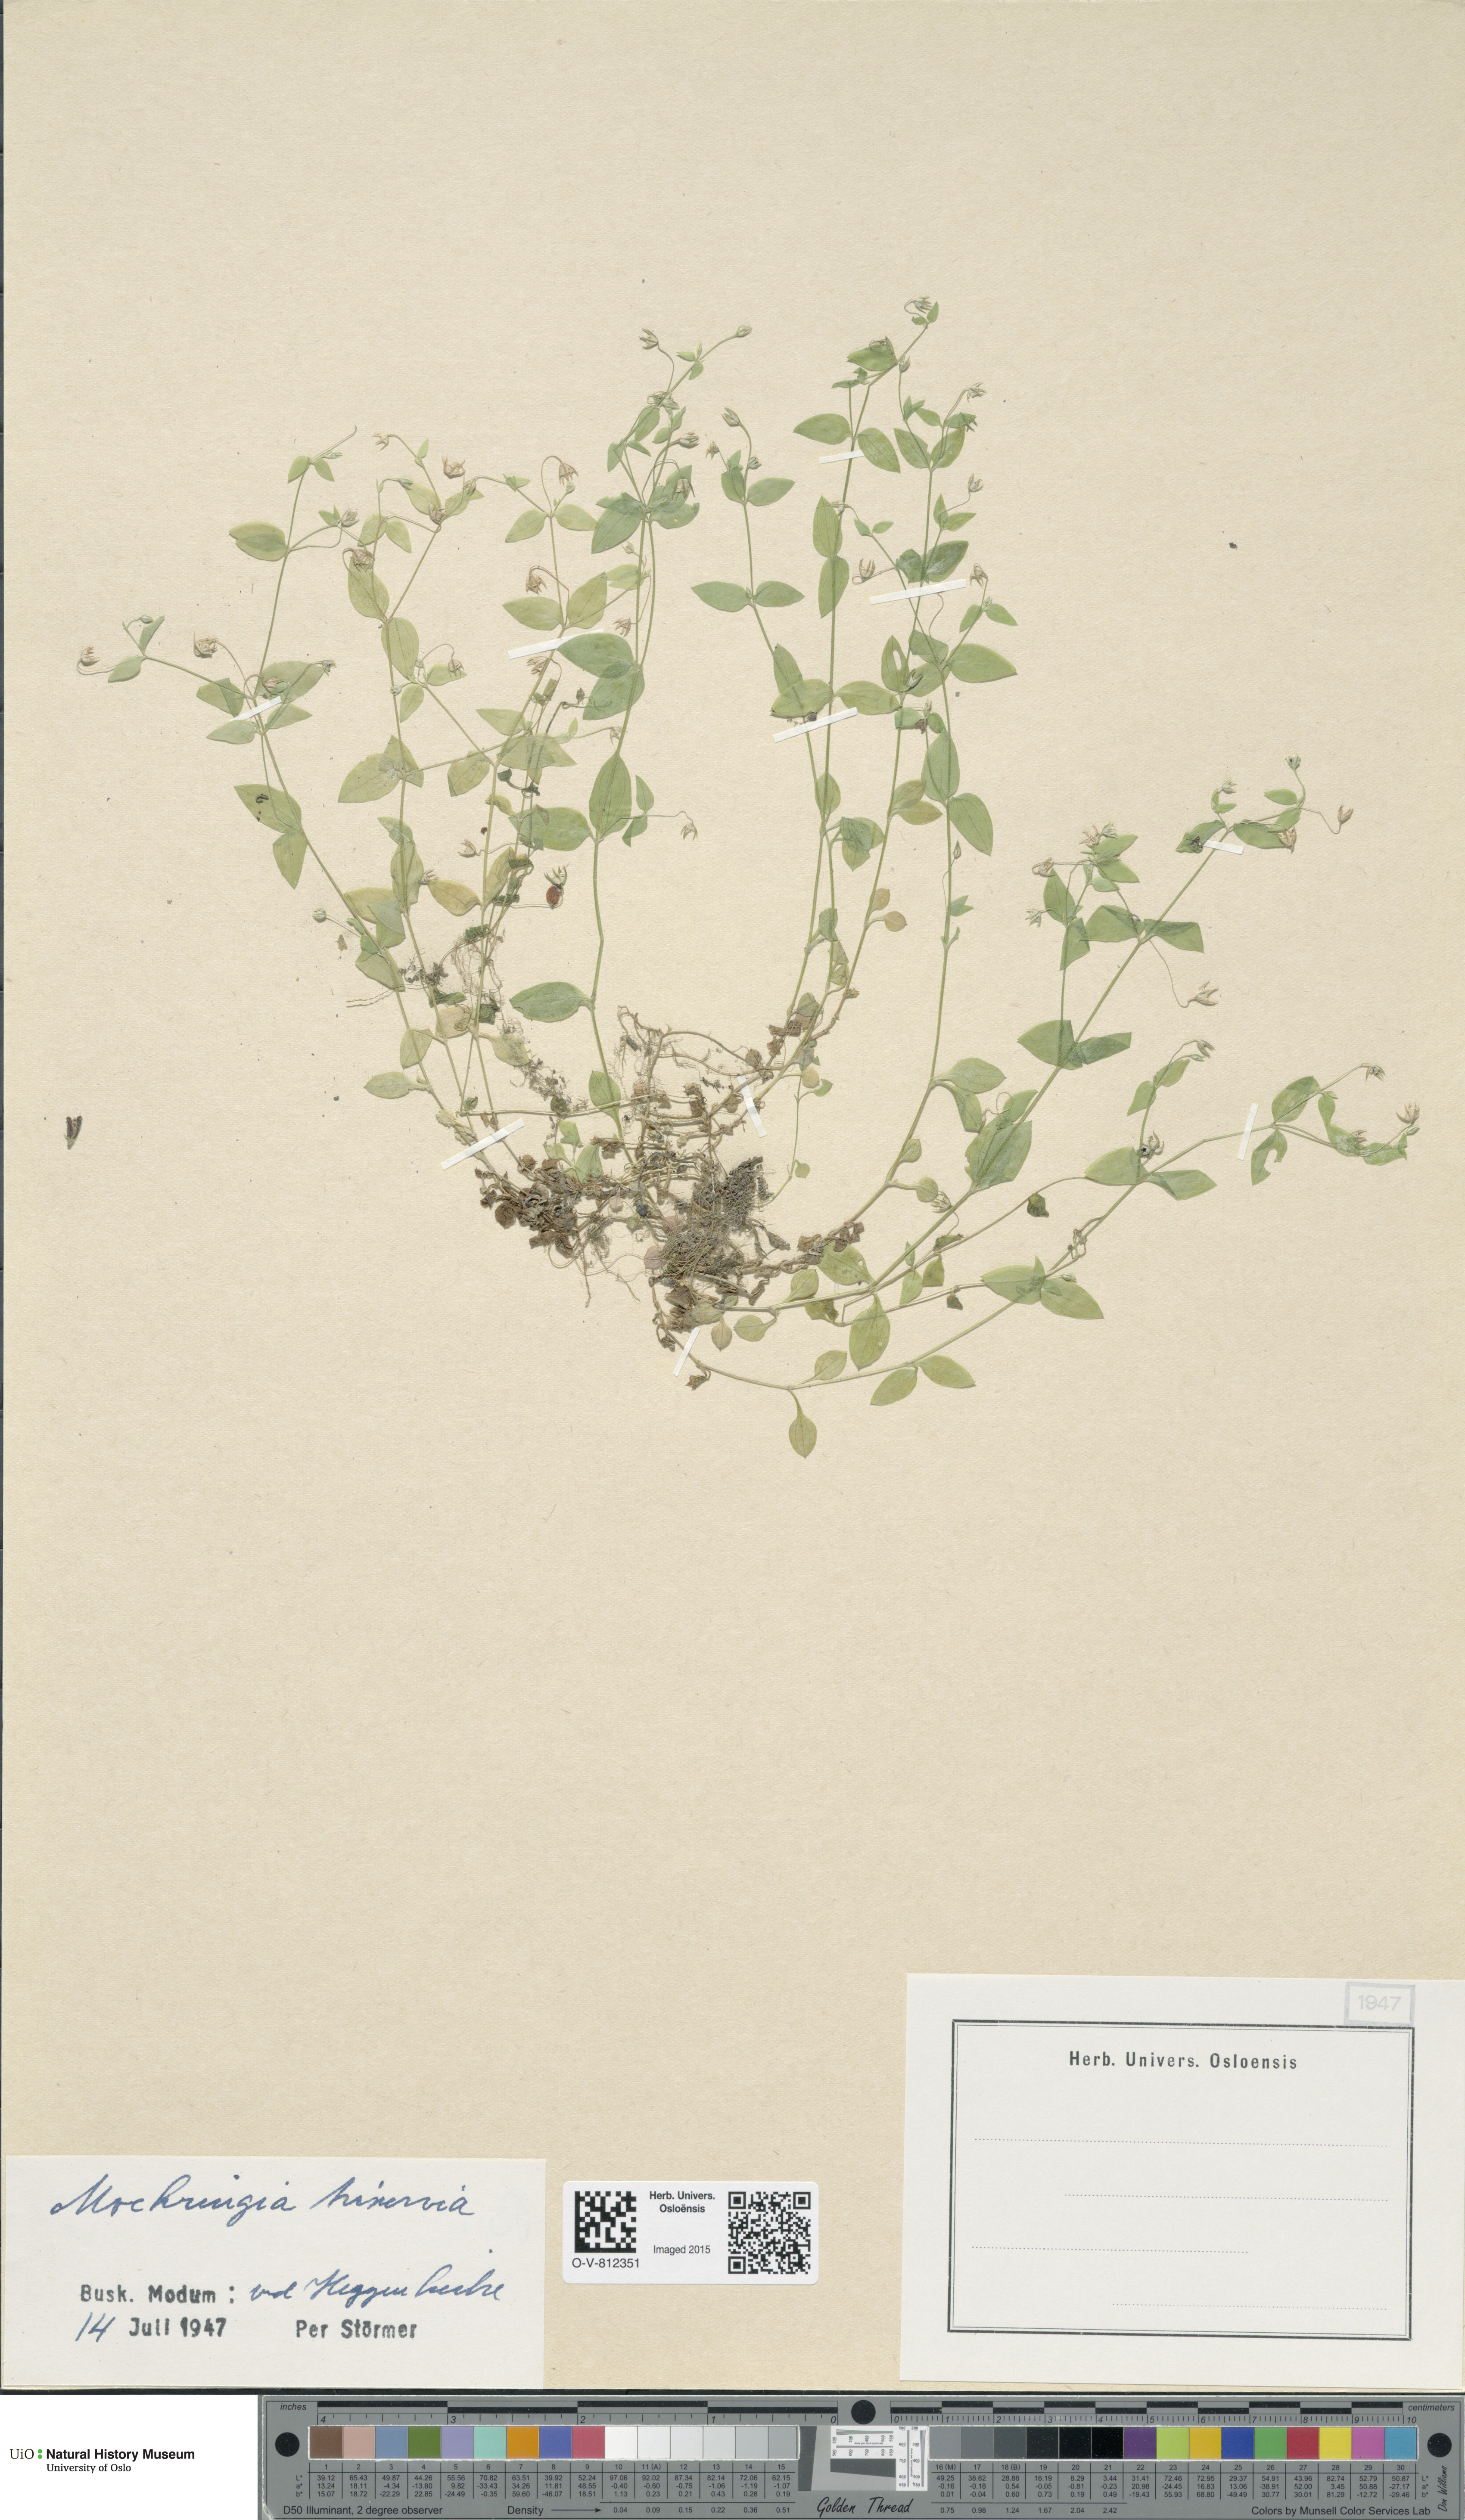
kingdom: Plantae
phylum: Tracheophyta
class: Magnoliopsida
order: Caryophyllales
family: Caryophyllaceae
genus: Moehringia
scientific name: Moehringia trinervia
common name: Three-nerved sandwort
